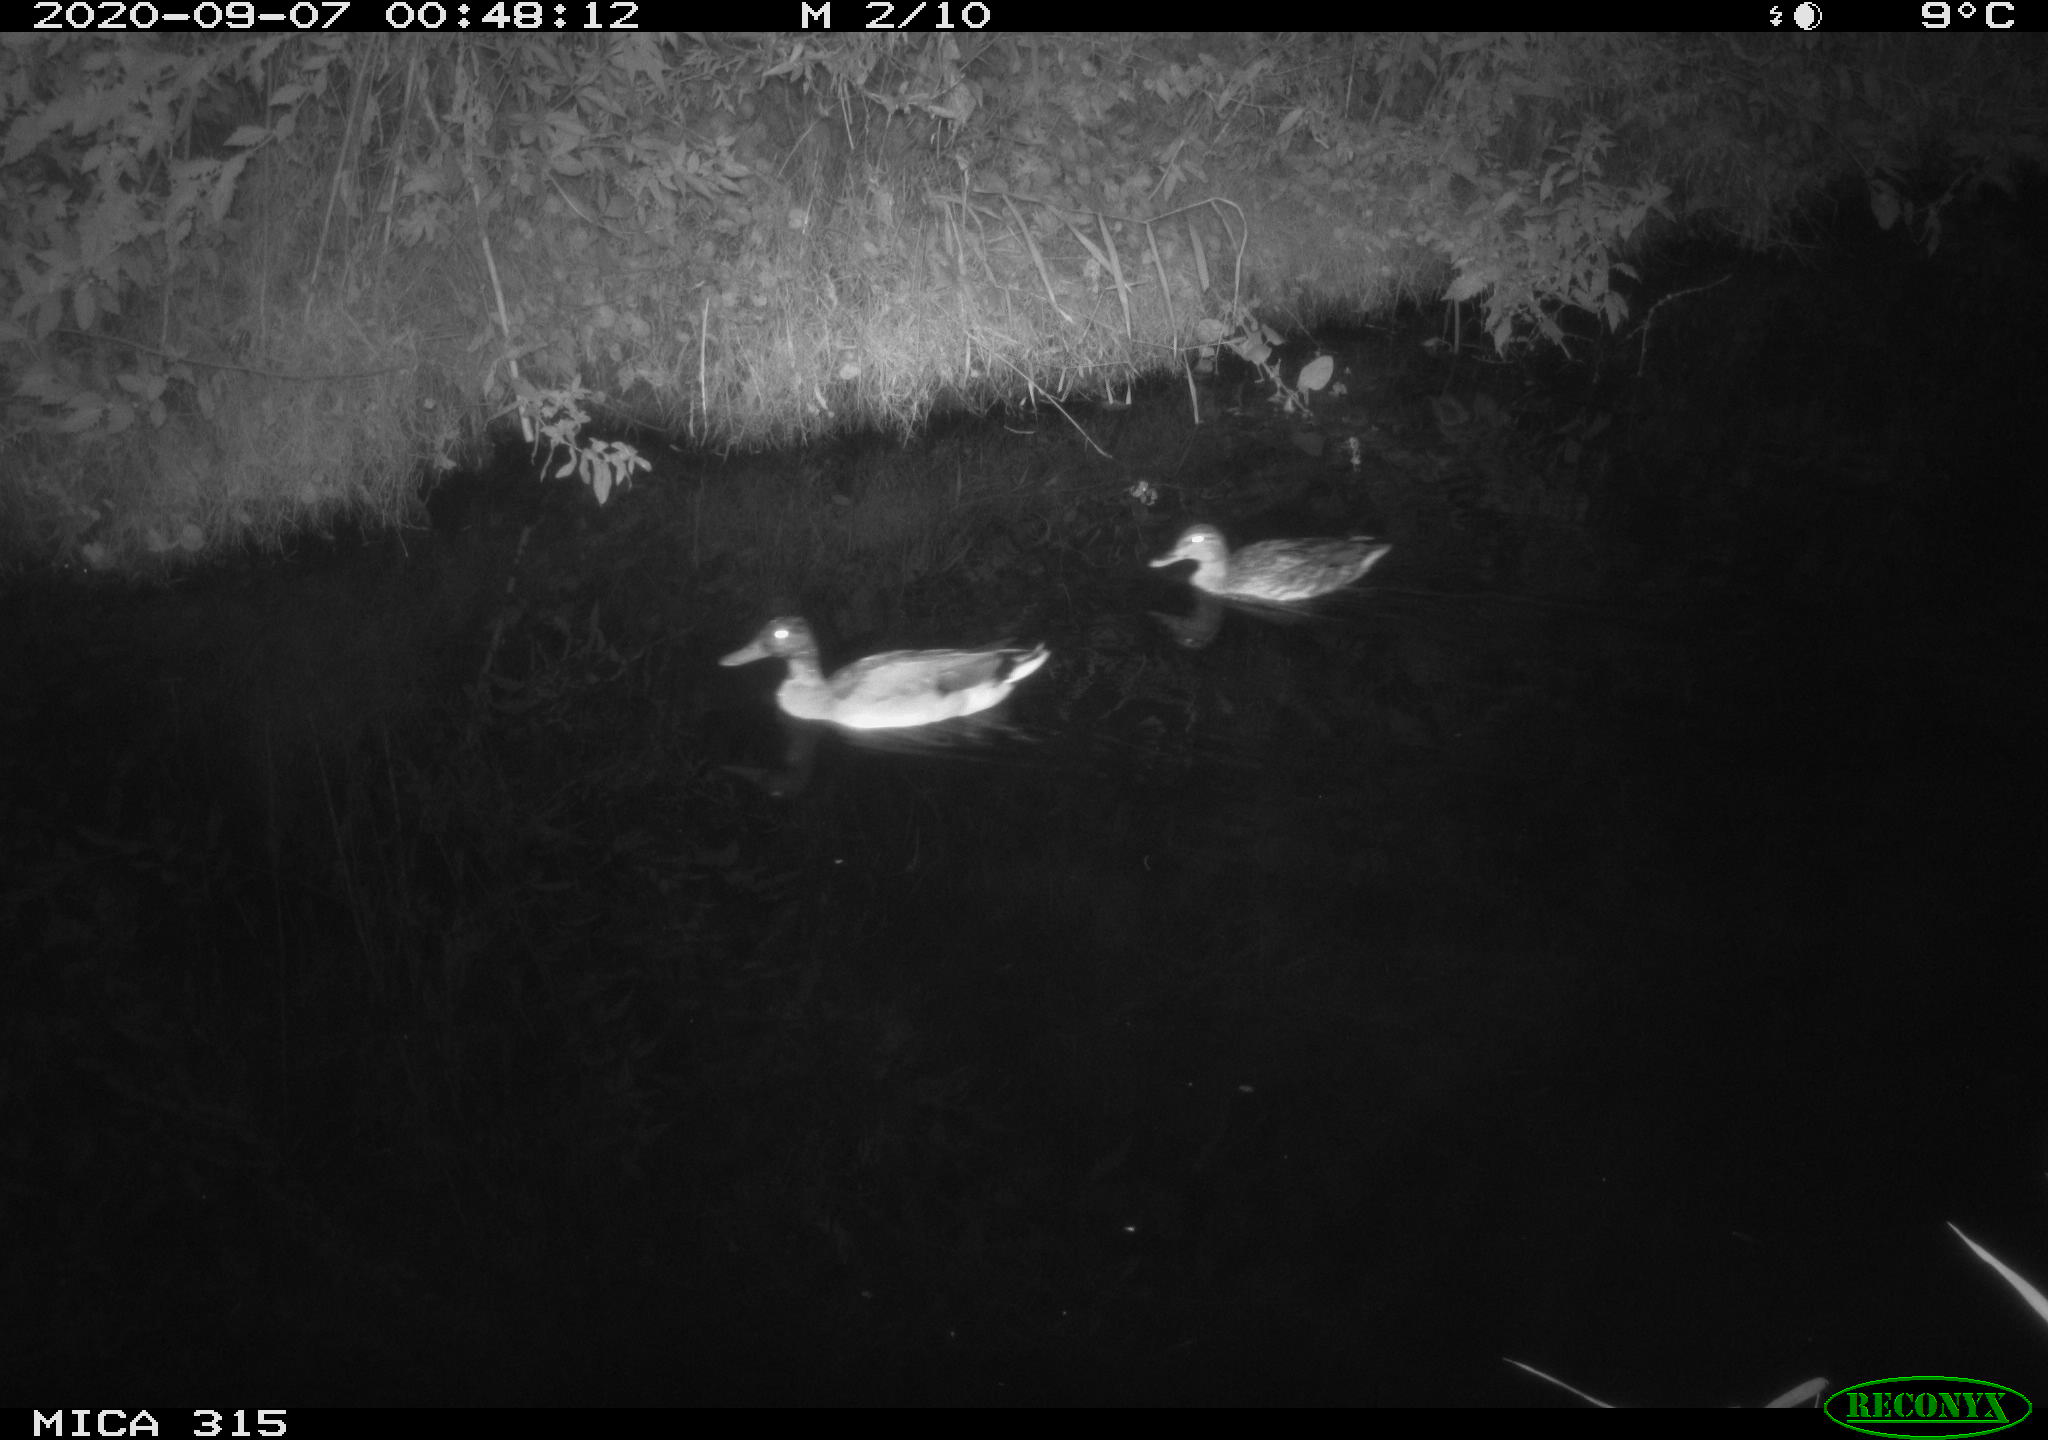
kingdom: Animalia
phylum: Chordata
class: Aves
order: Anseriformes
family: Anatidae
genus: Anas
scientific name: Anas platyrhynchos
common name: Mallard
